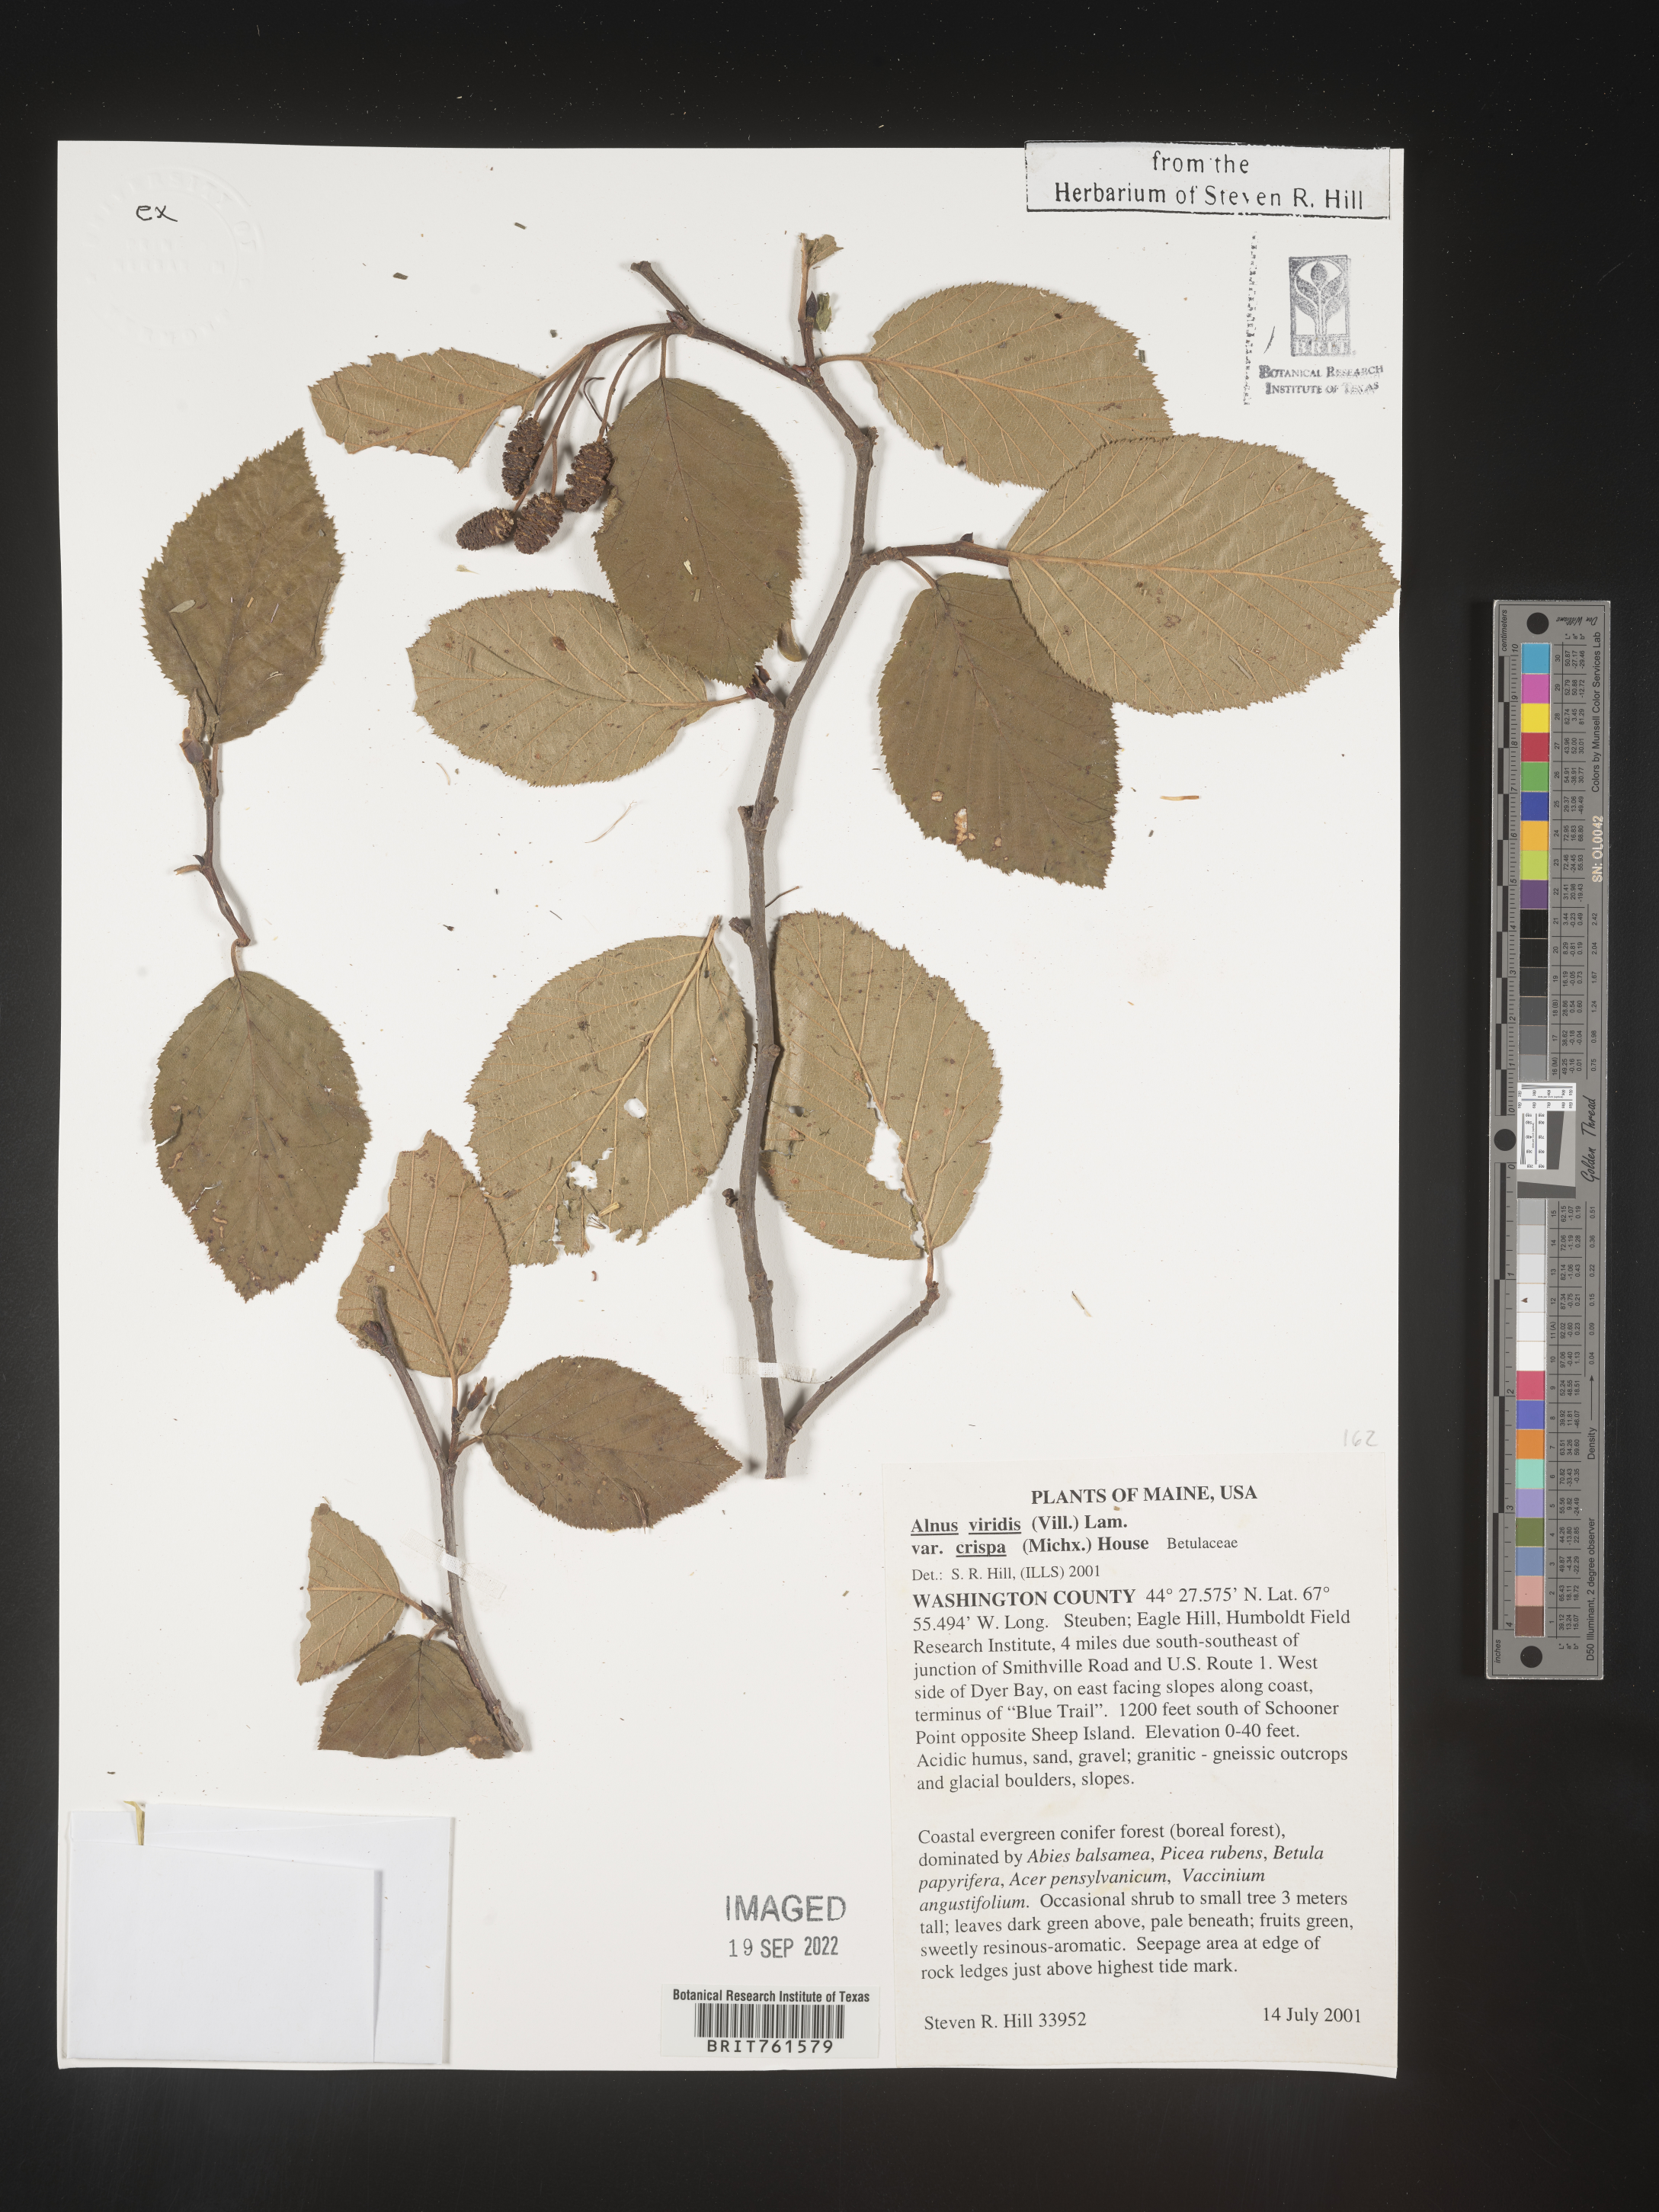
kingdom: Plantae
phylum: Tracheophyta
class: Magnoliopsida
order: Fagales
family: Betulaceae
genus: Alnus
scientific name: Alnus alnobetula
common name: Green alder
